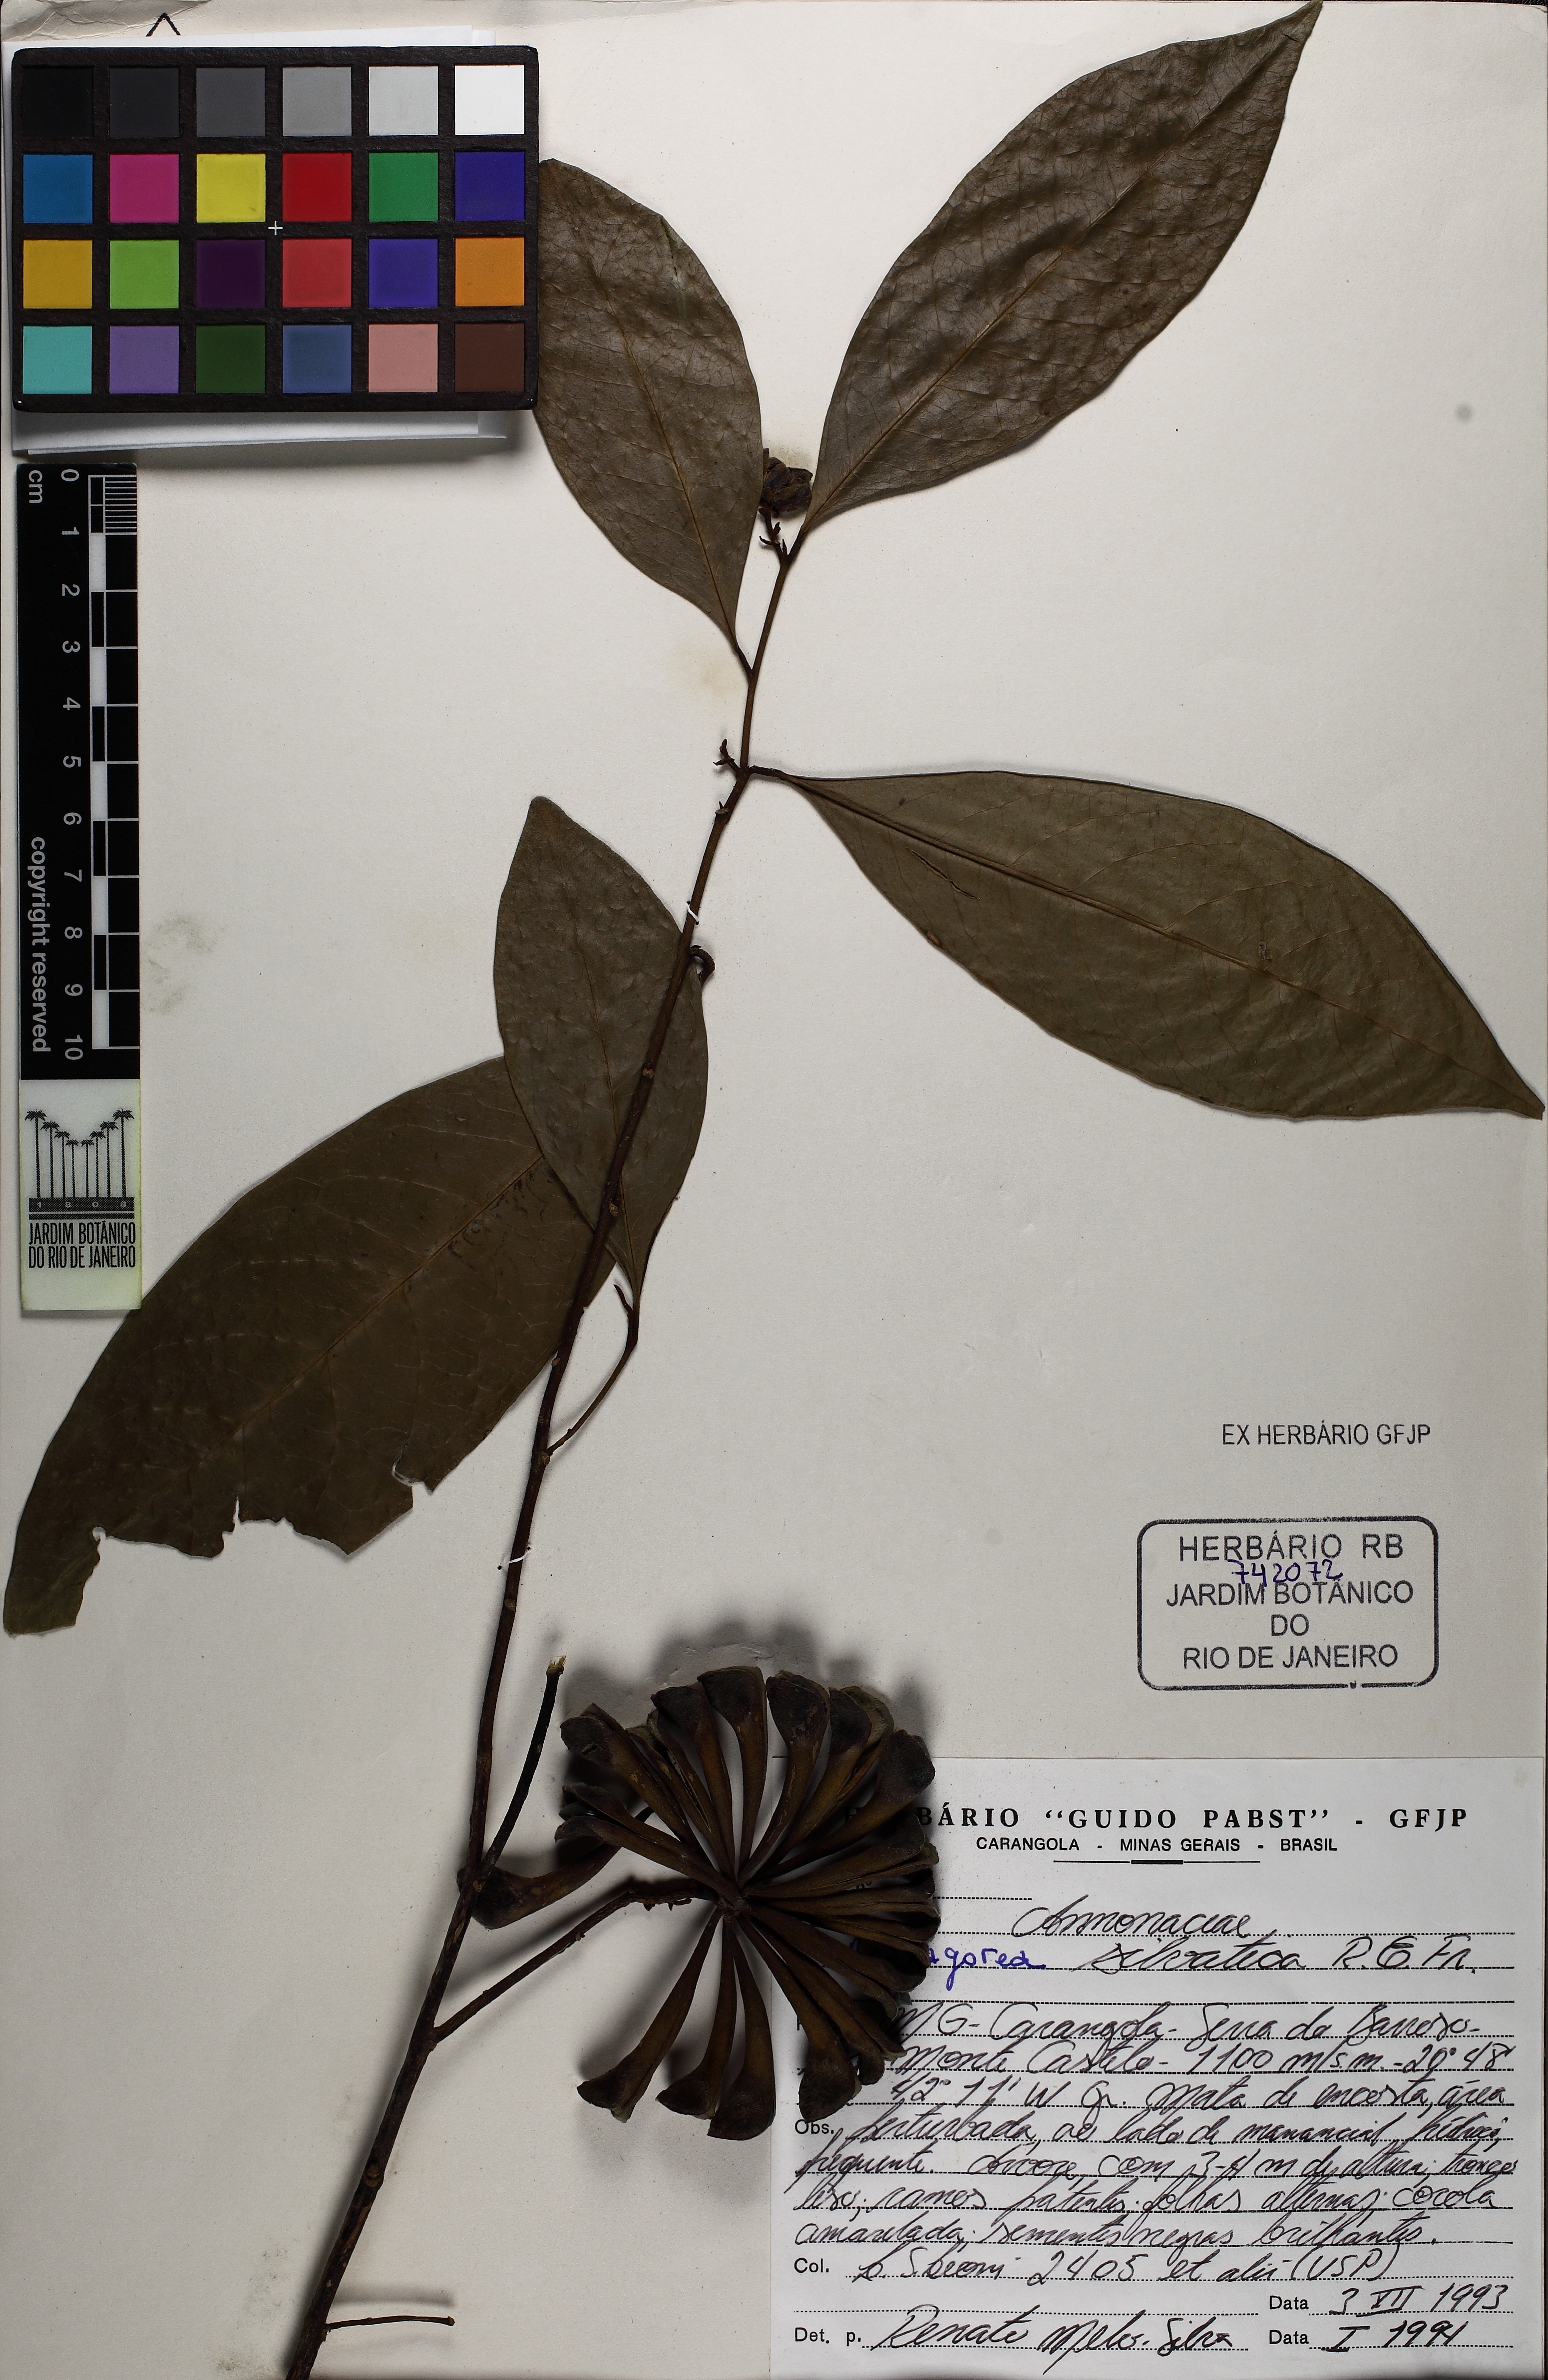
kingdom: Plantae
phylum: Tracheophyta
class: Magnoliopsida
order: Magnoliales
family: Annonaceae
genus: Anaxagorea
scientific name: Anaxagorea silvatica
